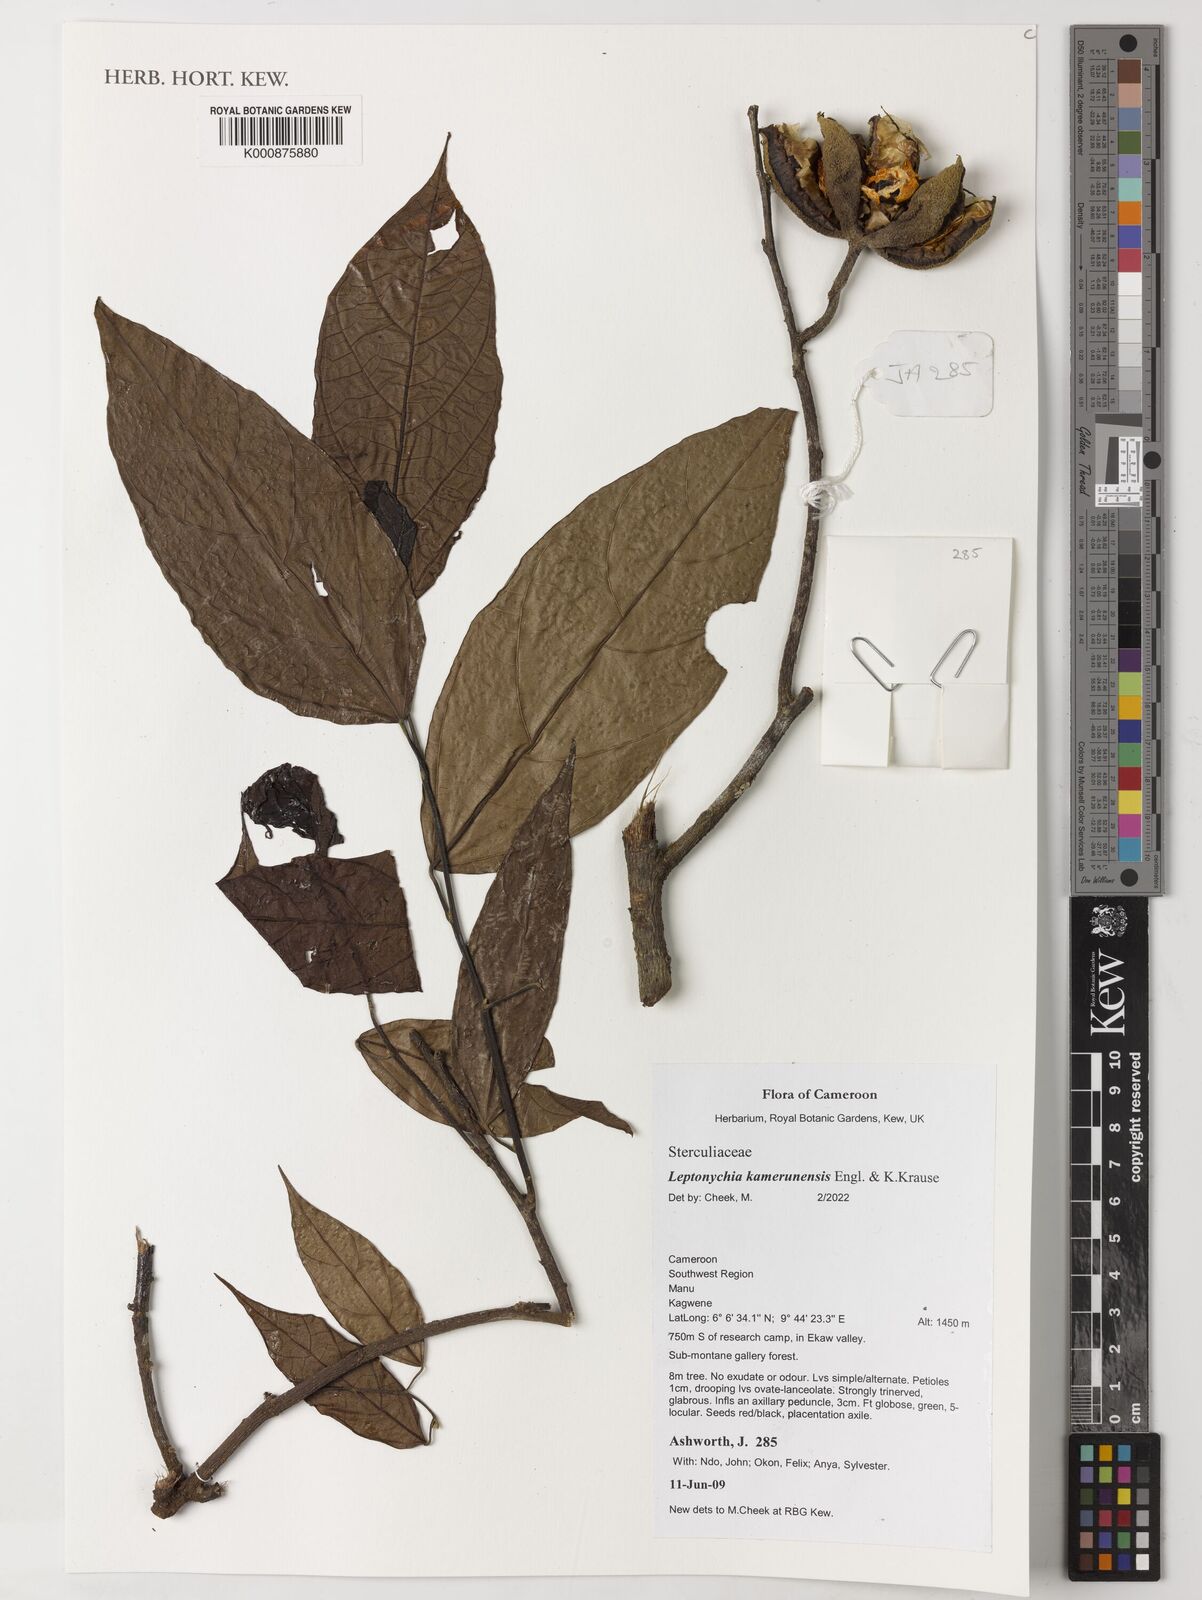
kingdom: Plantae
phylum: Tracheophyta
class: Magnoliopsida
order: Malvales
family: Malvaceae
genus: Leptonychia
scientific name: Leptonychia kamerunensis
